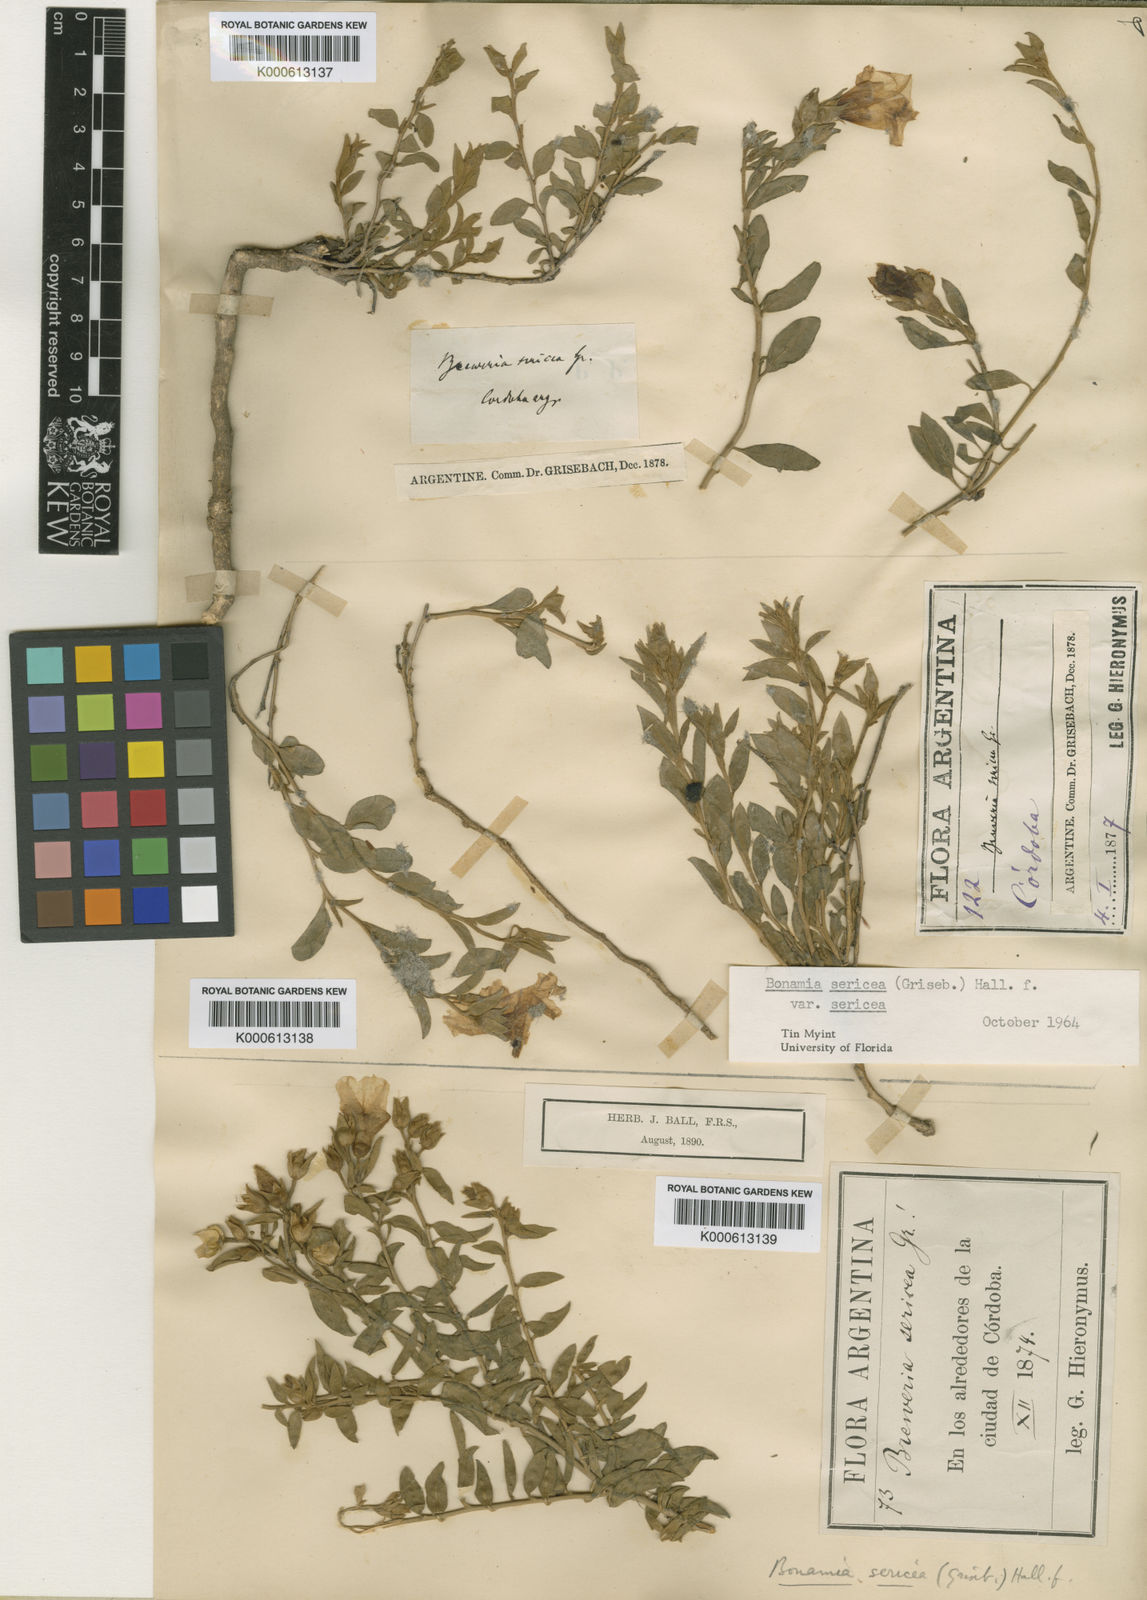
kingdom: Plantae
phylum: Tracheophyta
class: Magnoliopsida
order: Solanales
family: Convolvulaceae
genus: Bonamia
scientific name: Bonamia sericea
